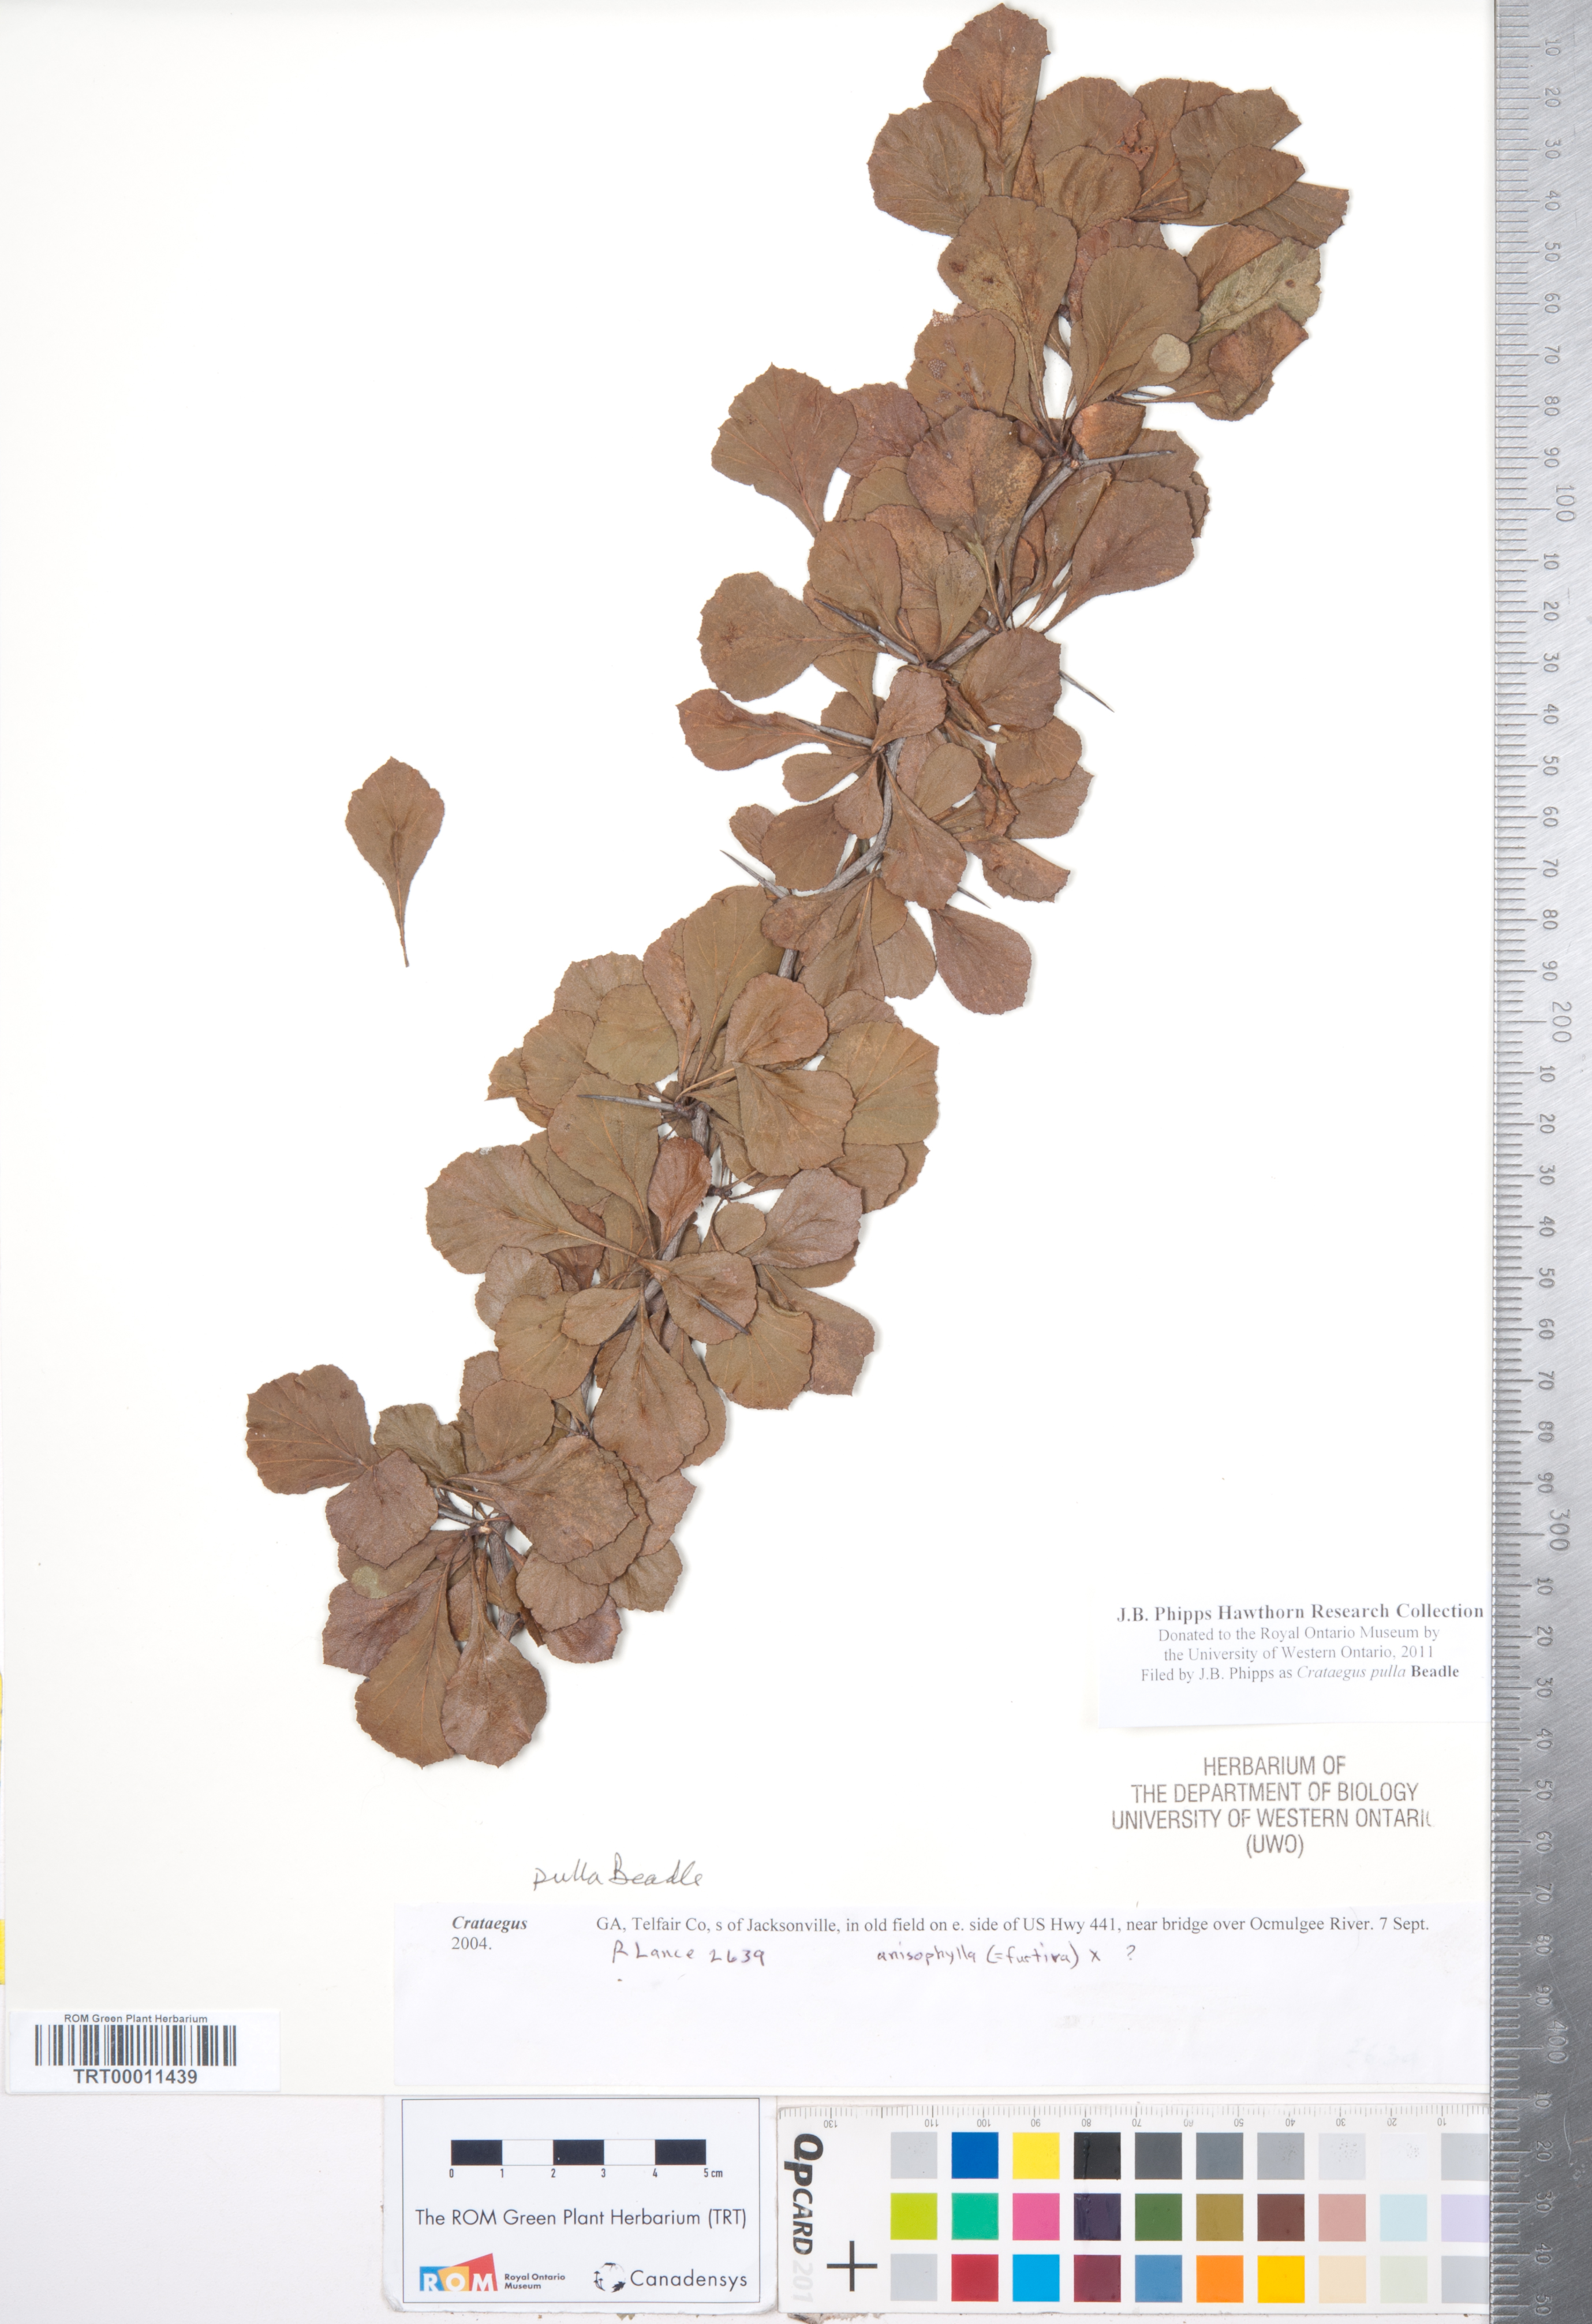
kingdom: Plantae
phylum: Tracheophyta
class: Magnoliopsida
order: Rosales
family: Rosaceae
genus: Crataegus
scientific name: Crataegus senta
